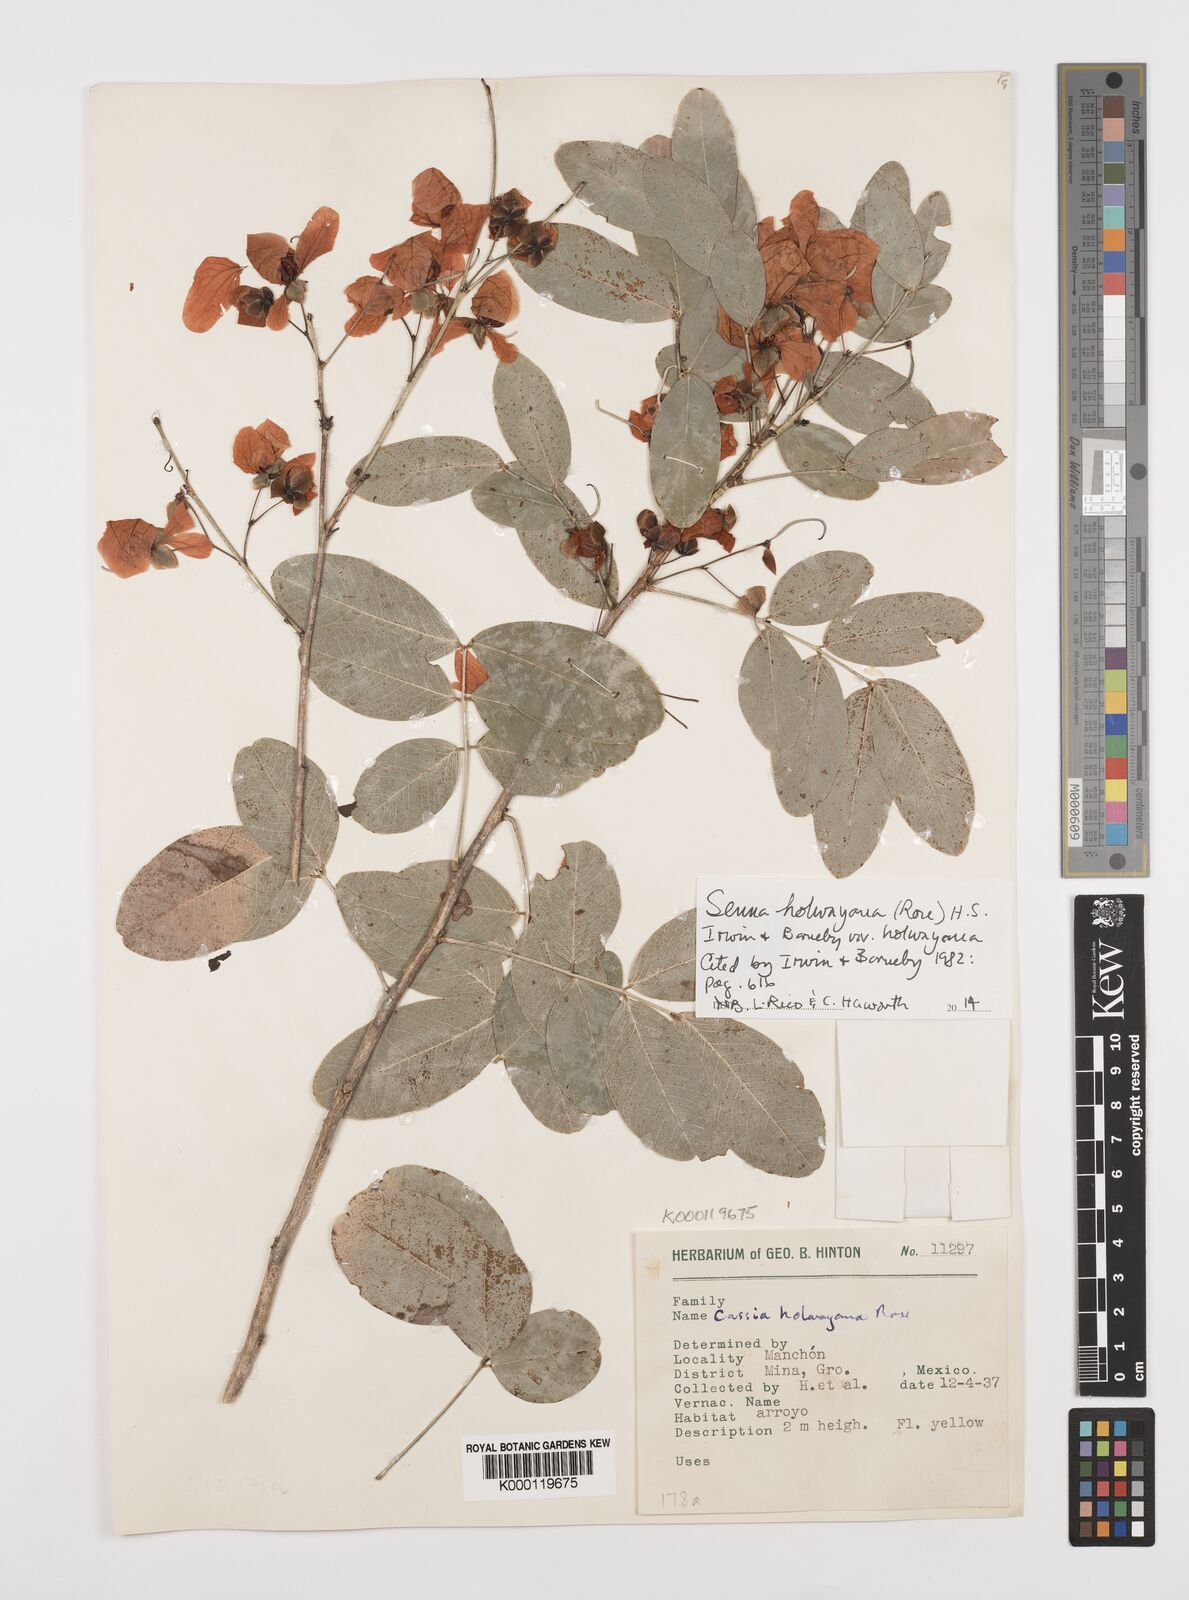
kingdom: Plantae
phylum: Tracheophyta
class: Magnoliopsida
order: Fabales
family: Fabaceae
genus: Senna
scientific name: Senna holwayana
